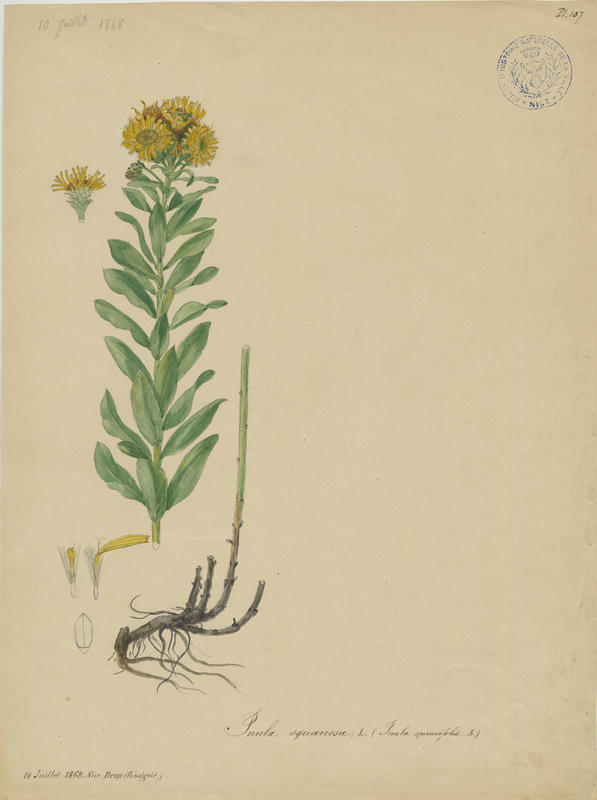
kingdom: Plantae
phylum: Tracheophyta
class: Magnoliopsida
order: Asterales
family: Asteraceae
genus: Pentanema
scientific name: Pentanema spiraeifolium
